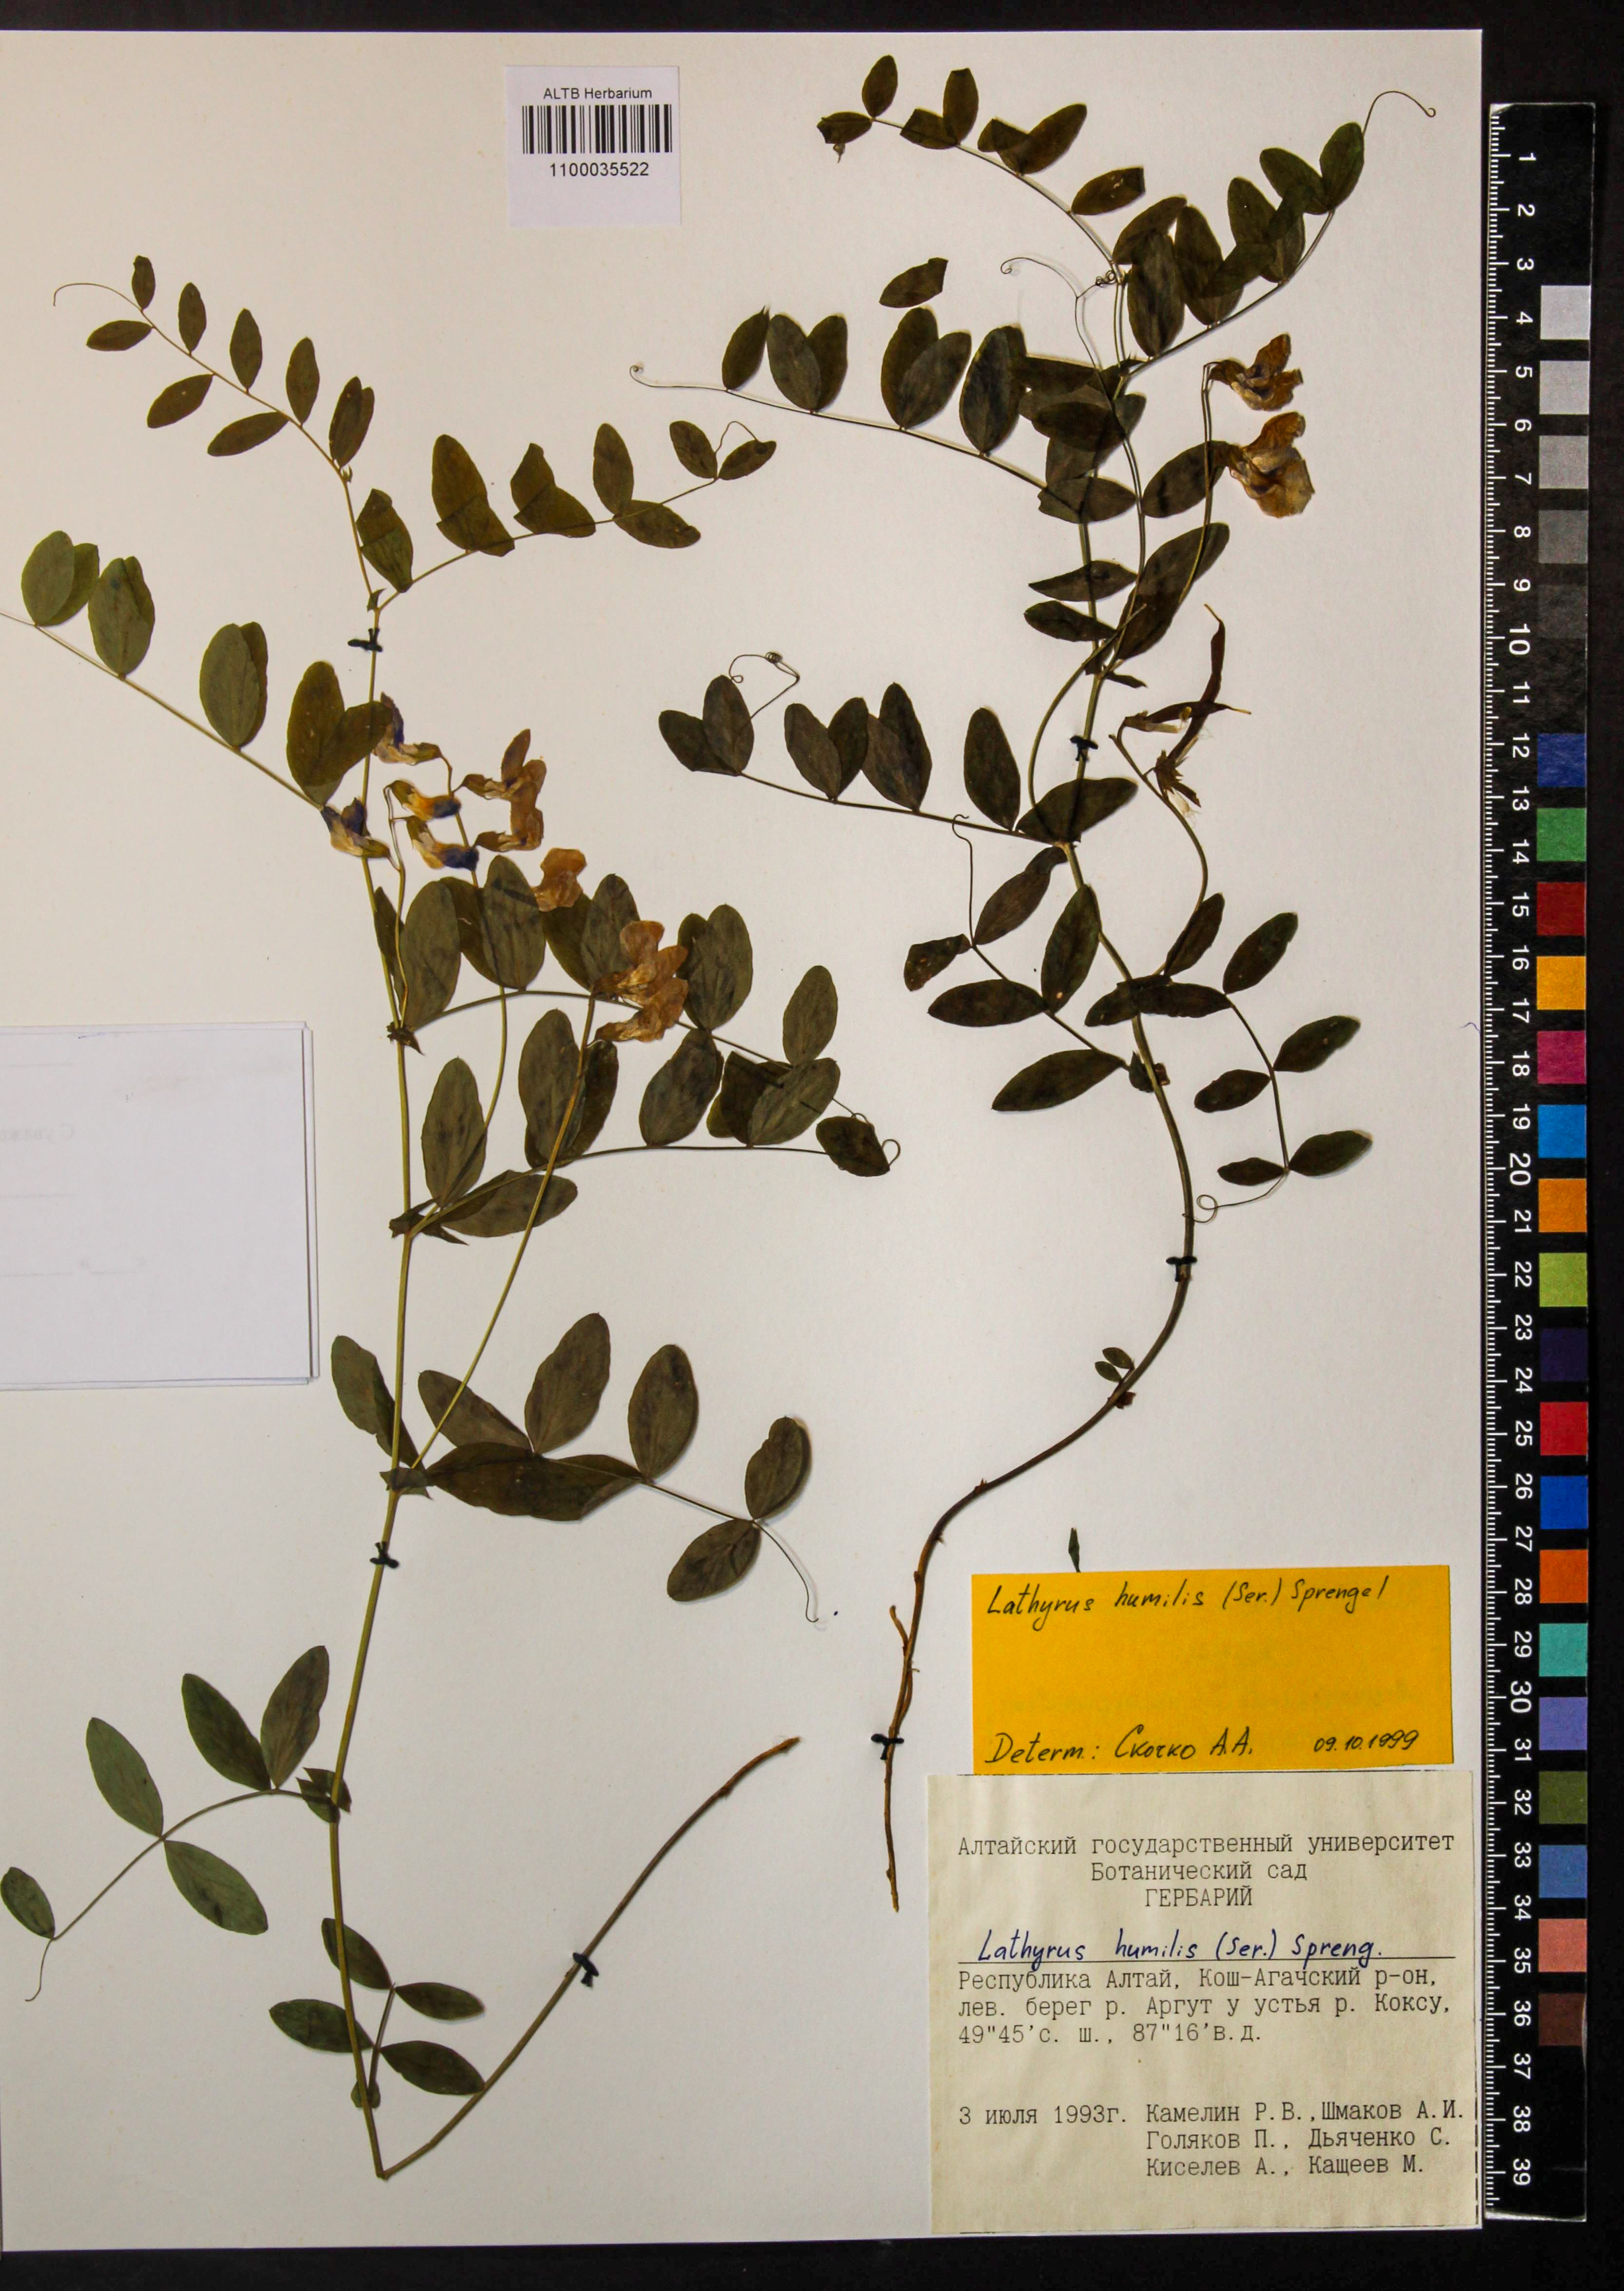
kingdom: Plantae
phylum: Tracheophyta
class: Magnoliopsida
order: Fabales
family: Fabaceae
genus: Lathyrus
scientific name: Lathyrus humilis
